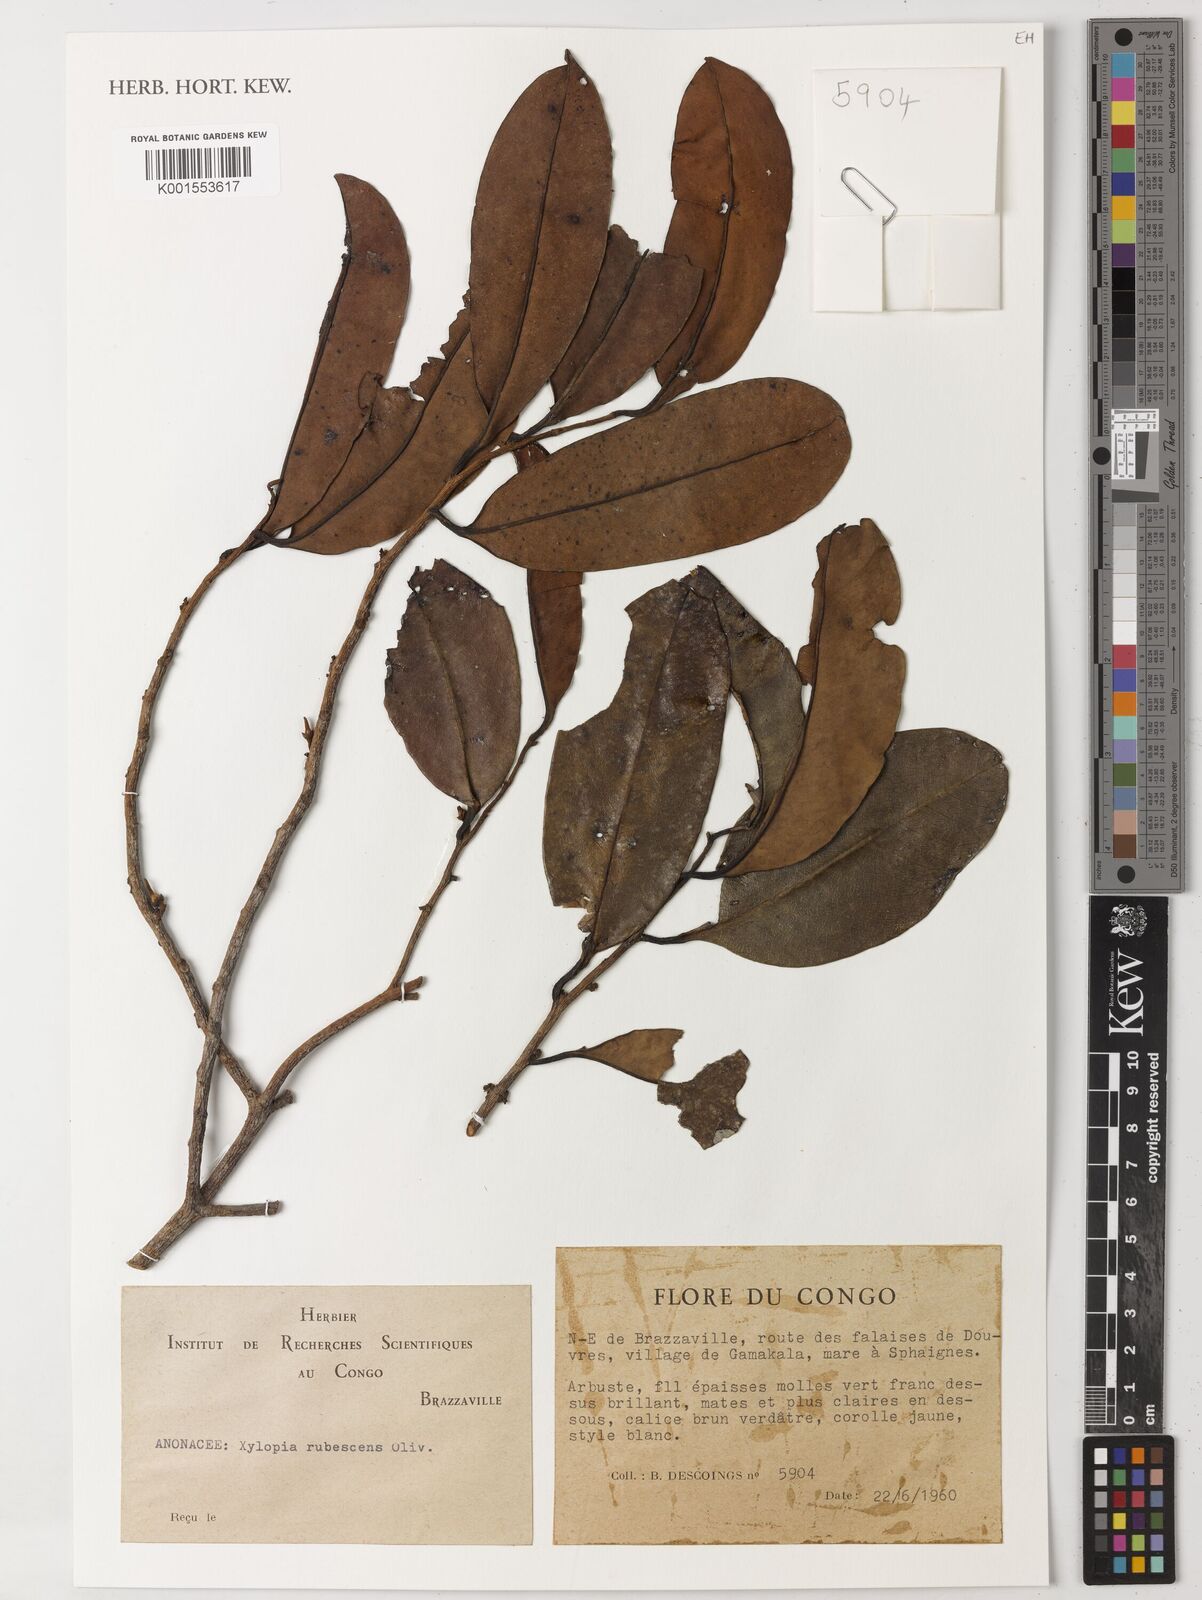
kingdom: Plantae
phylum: Tracheophyta
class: Magnoliopsida
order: Magnoliales
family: Annonaceae
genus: Xylopia
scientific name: Xylopia rubescens
